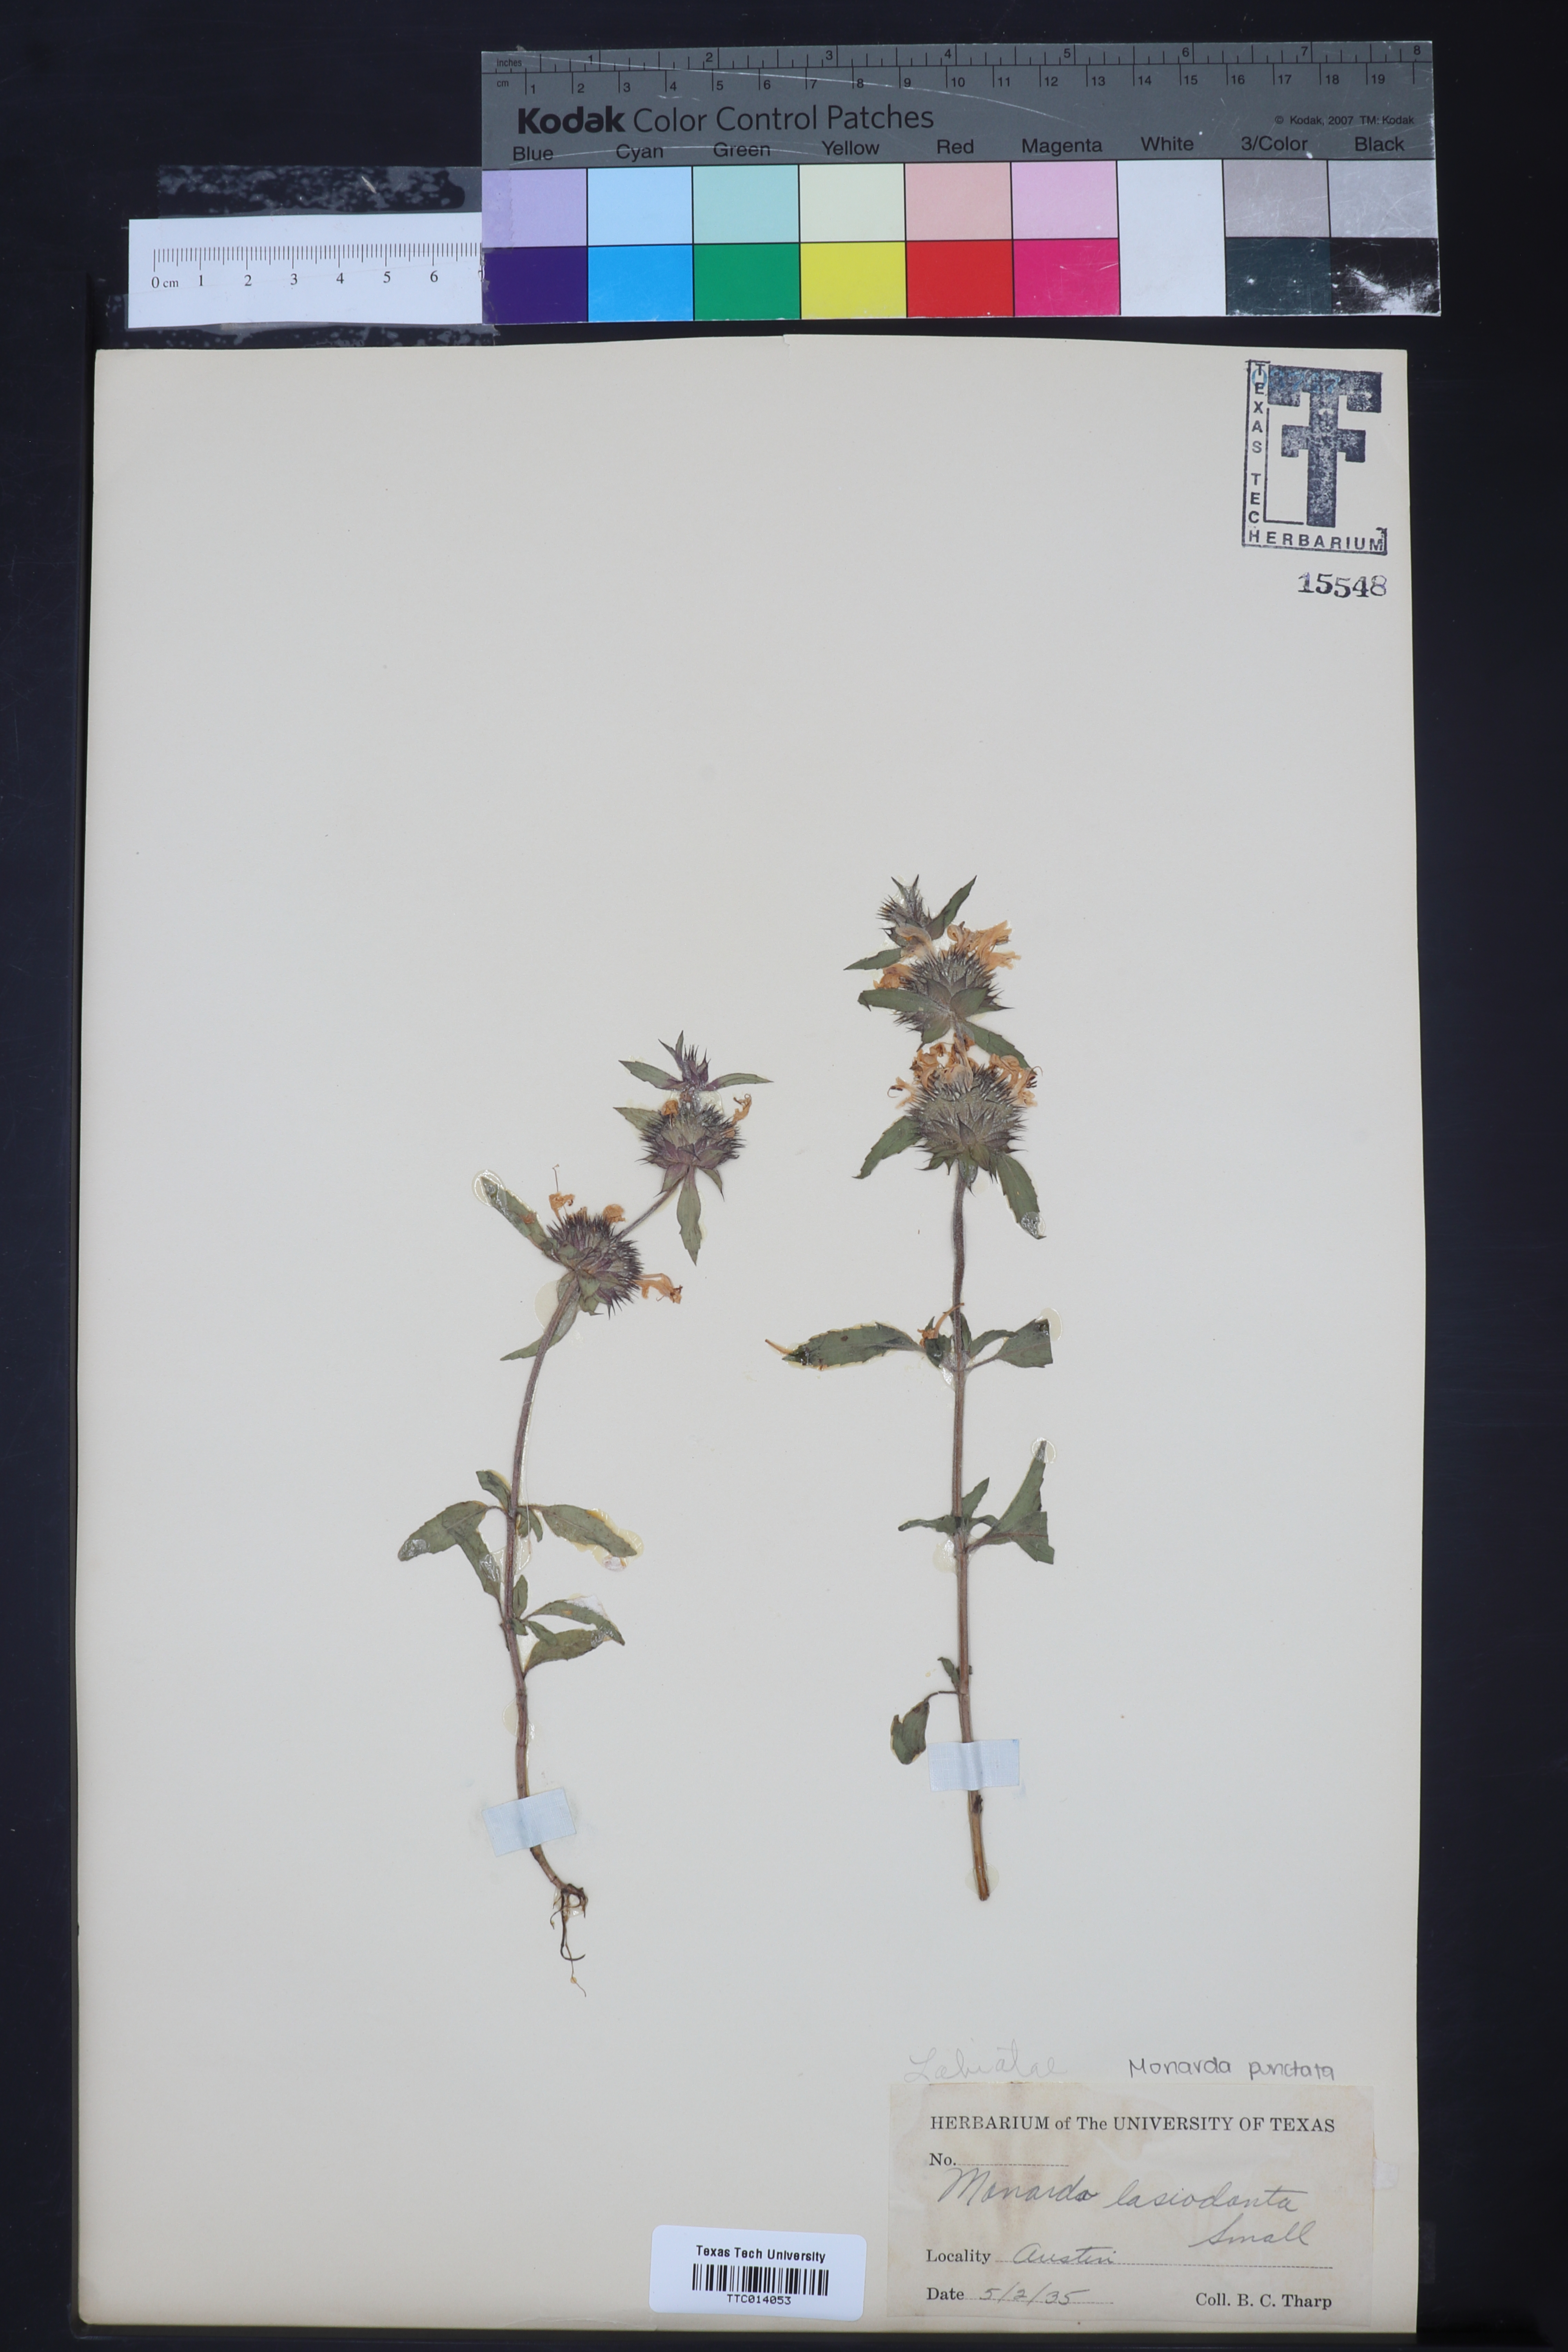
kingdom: Plantae
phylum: Tracheophyta
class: Magnoliopsida
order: Lamiales
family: Lamiaceae
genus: Monarda
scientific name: Monarda punctata
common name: Dotted monarda
